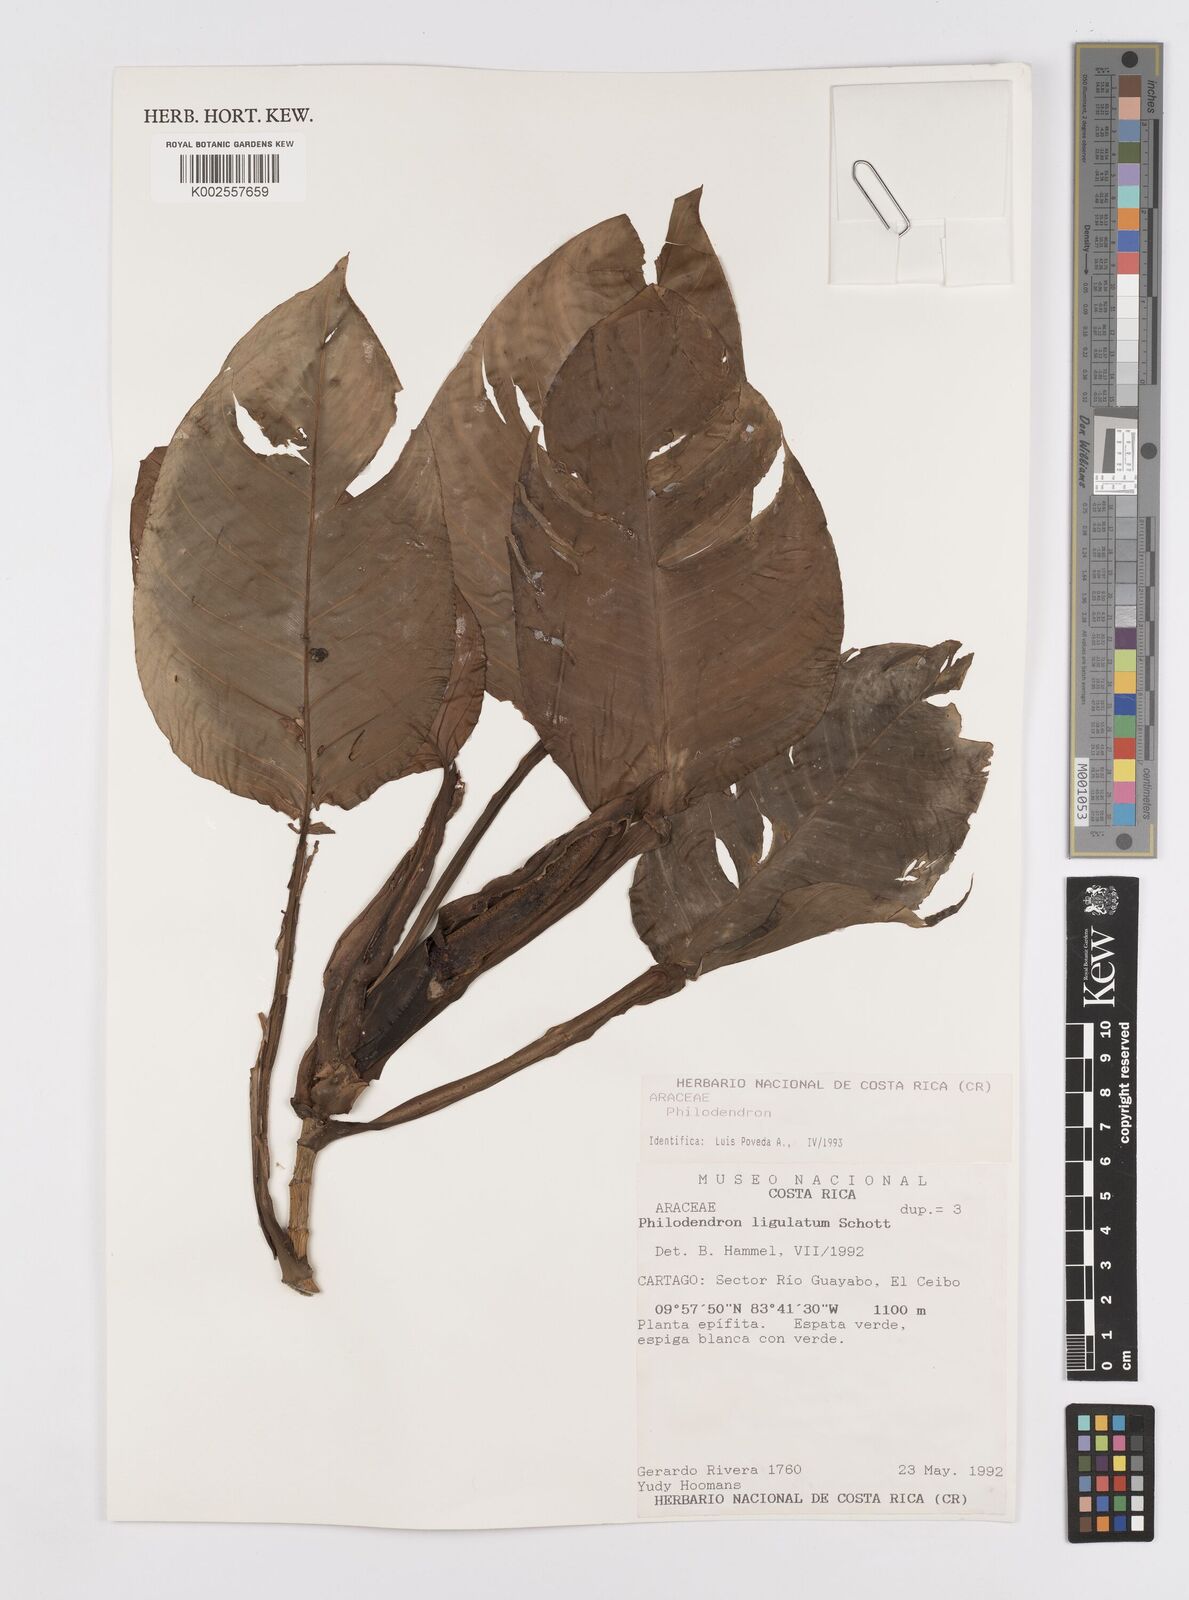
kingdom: Plantae
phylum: Tracheophyta
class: Liliopsida
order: Alismatales
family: Araceae
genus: Philodendron
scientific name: Philodendron aurantiifolium
